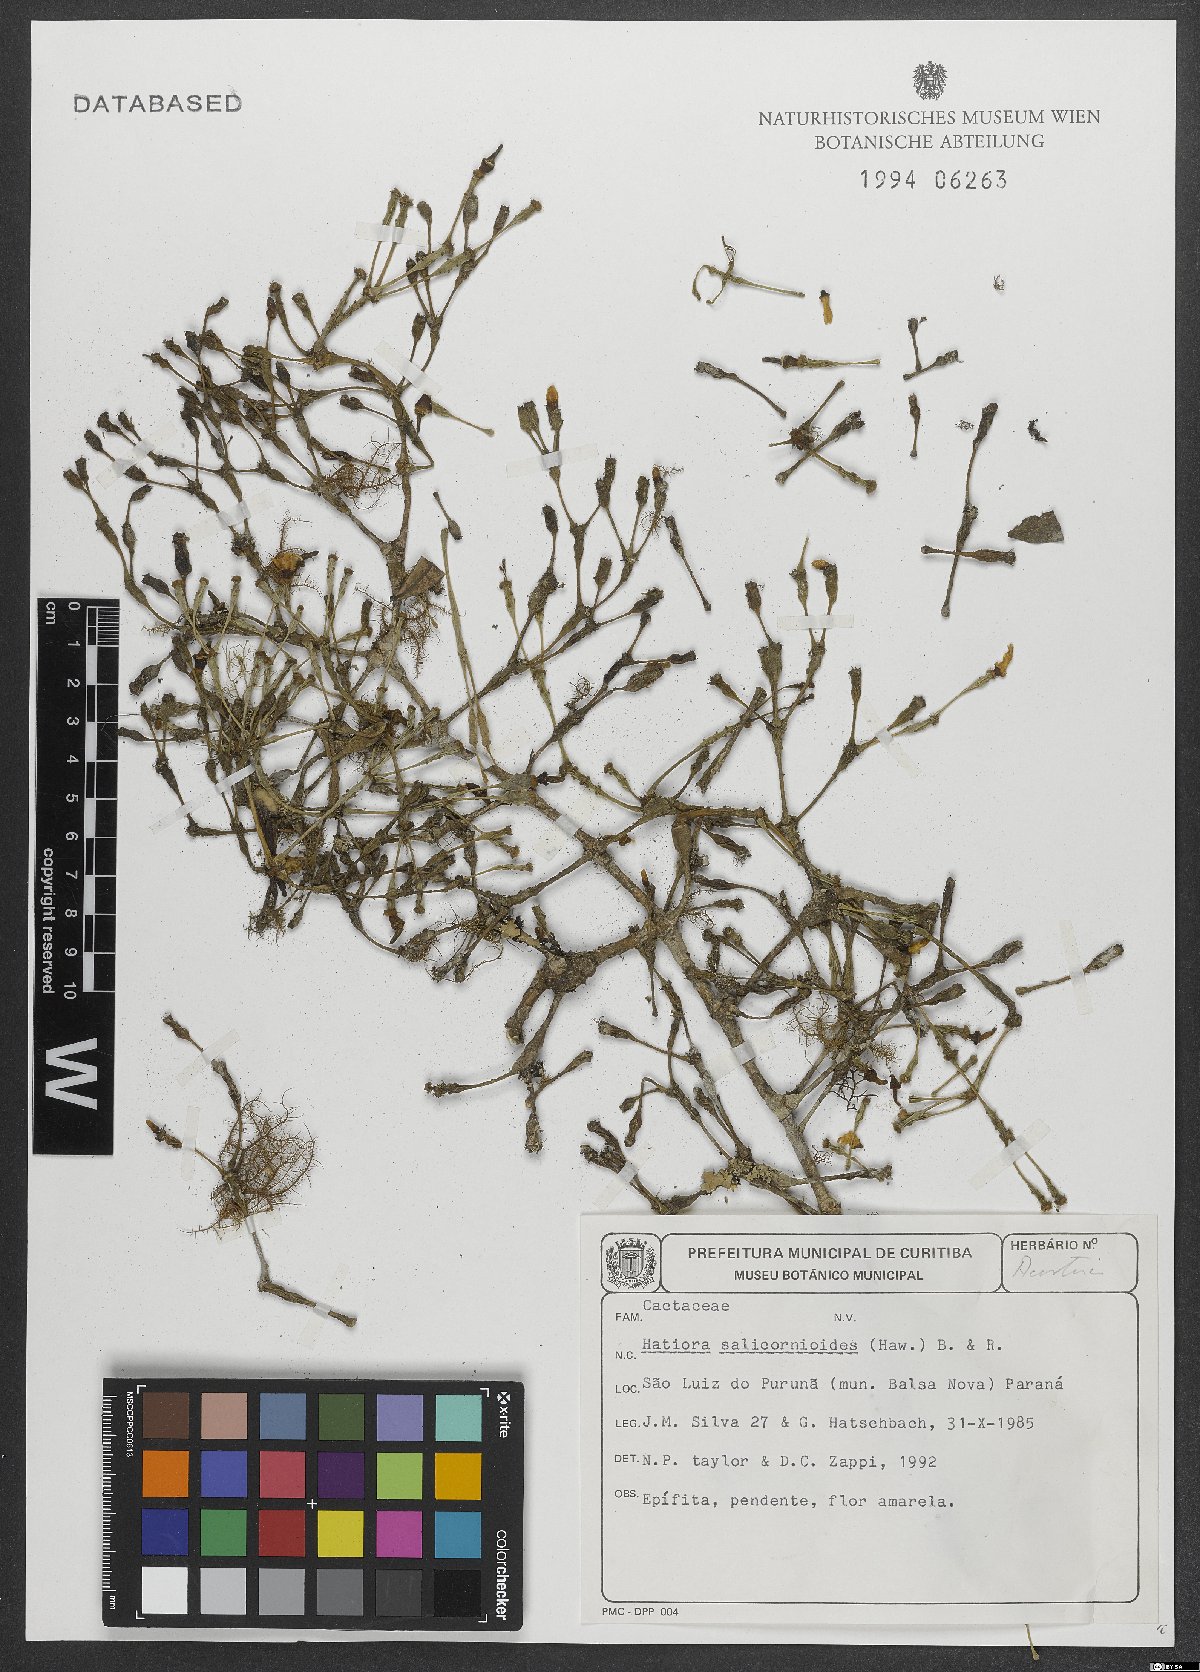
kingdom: Plantae
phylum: Tracheophyta
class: Magnoliopsida
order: Caryophyllales
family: Cactaceae
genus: Hatiora
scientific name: Hatiora salicornioides
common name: Dancing-bones
